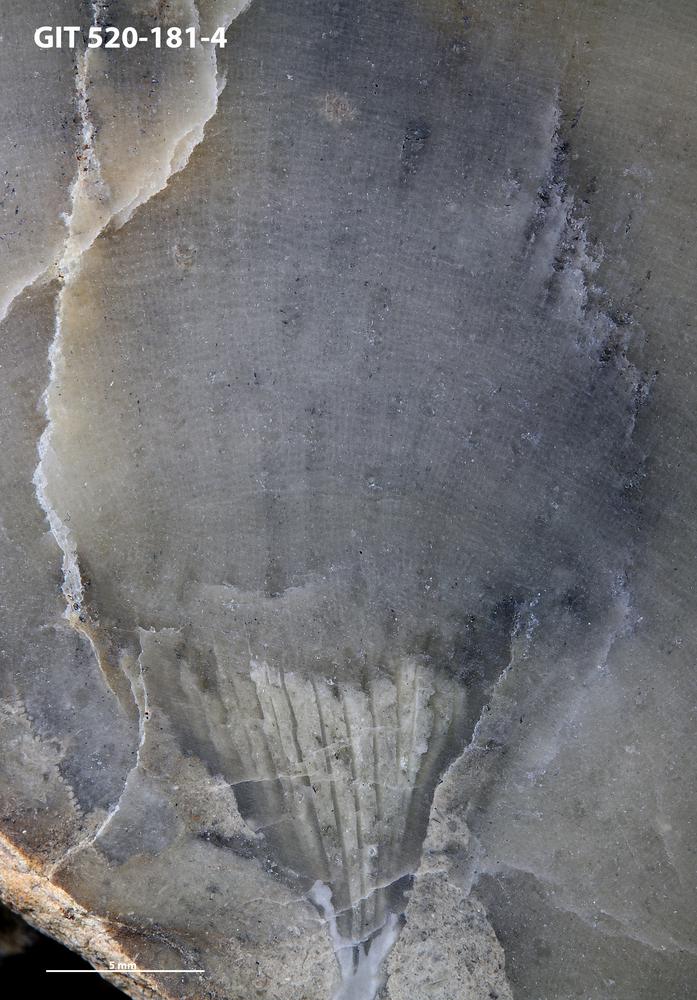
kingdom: Animalia
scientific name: Animalia
